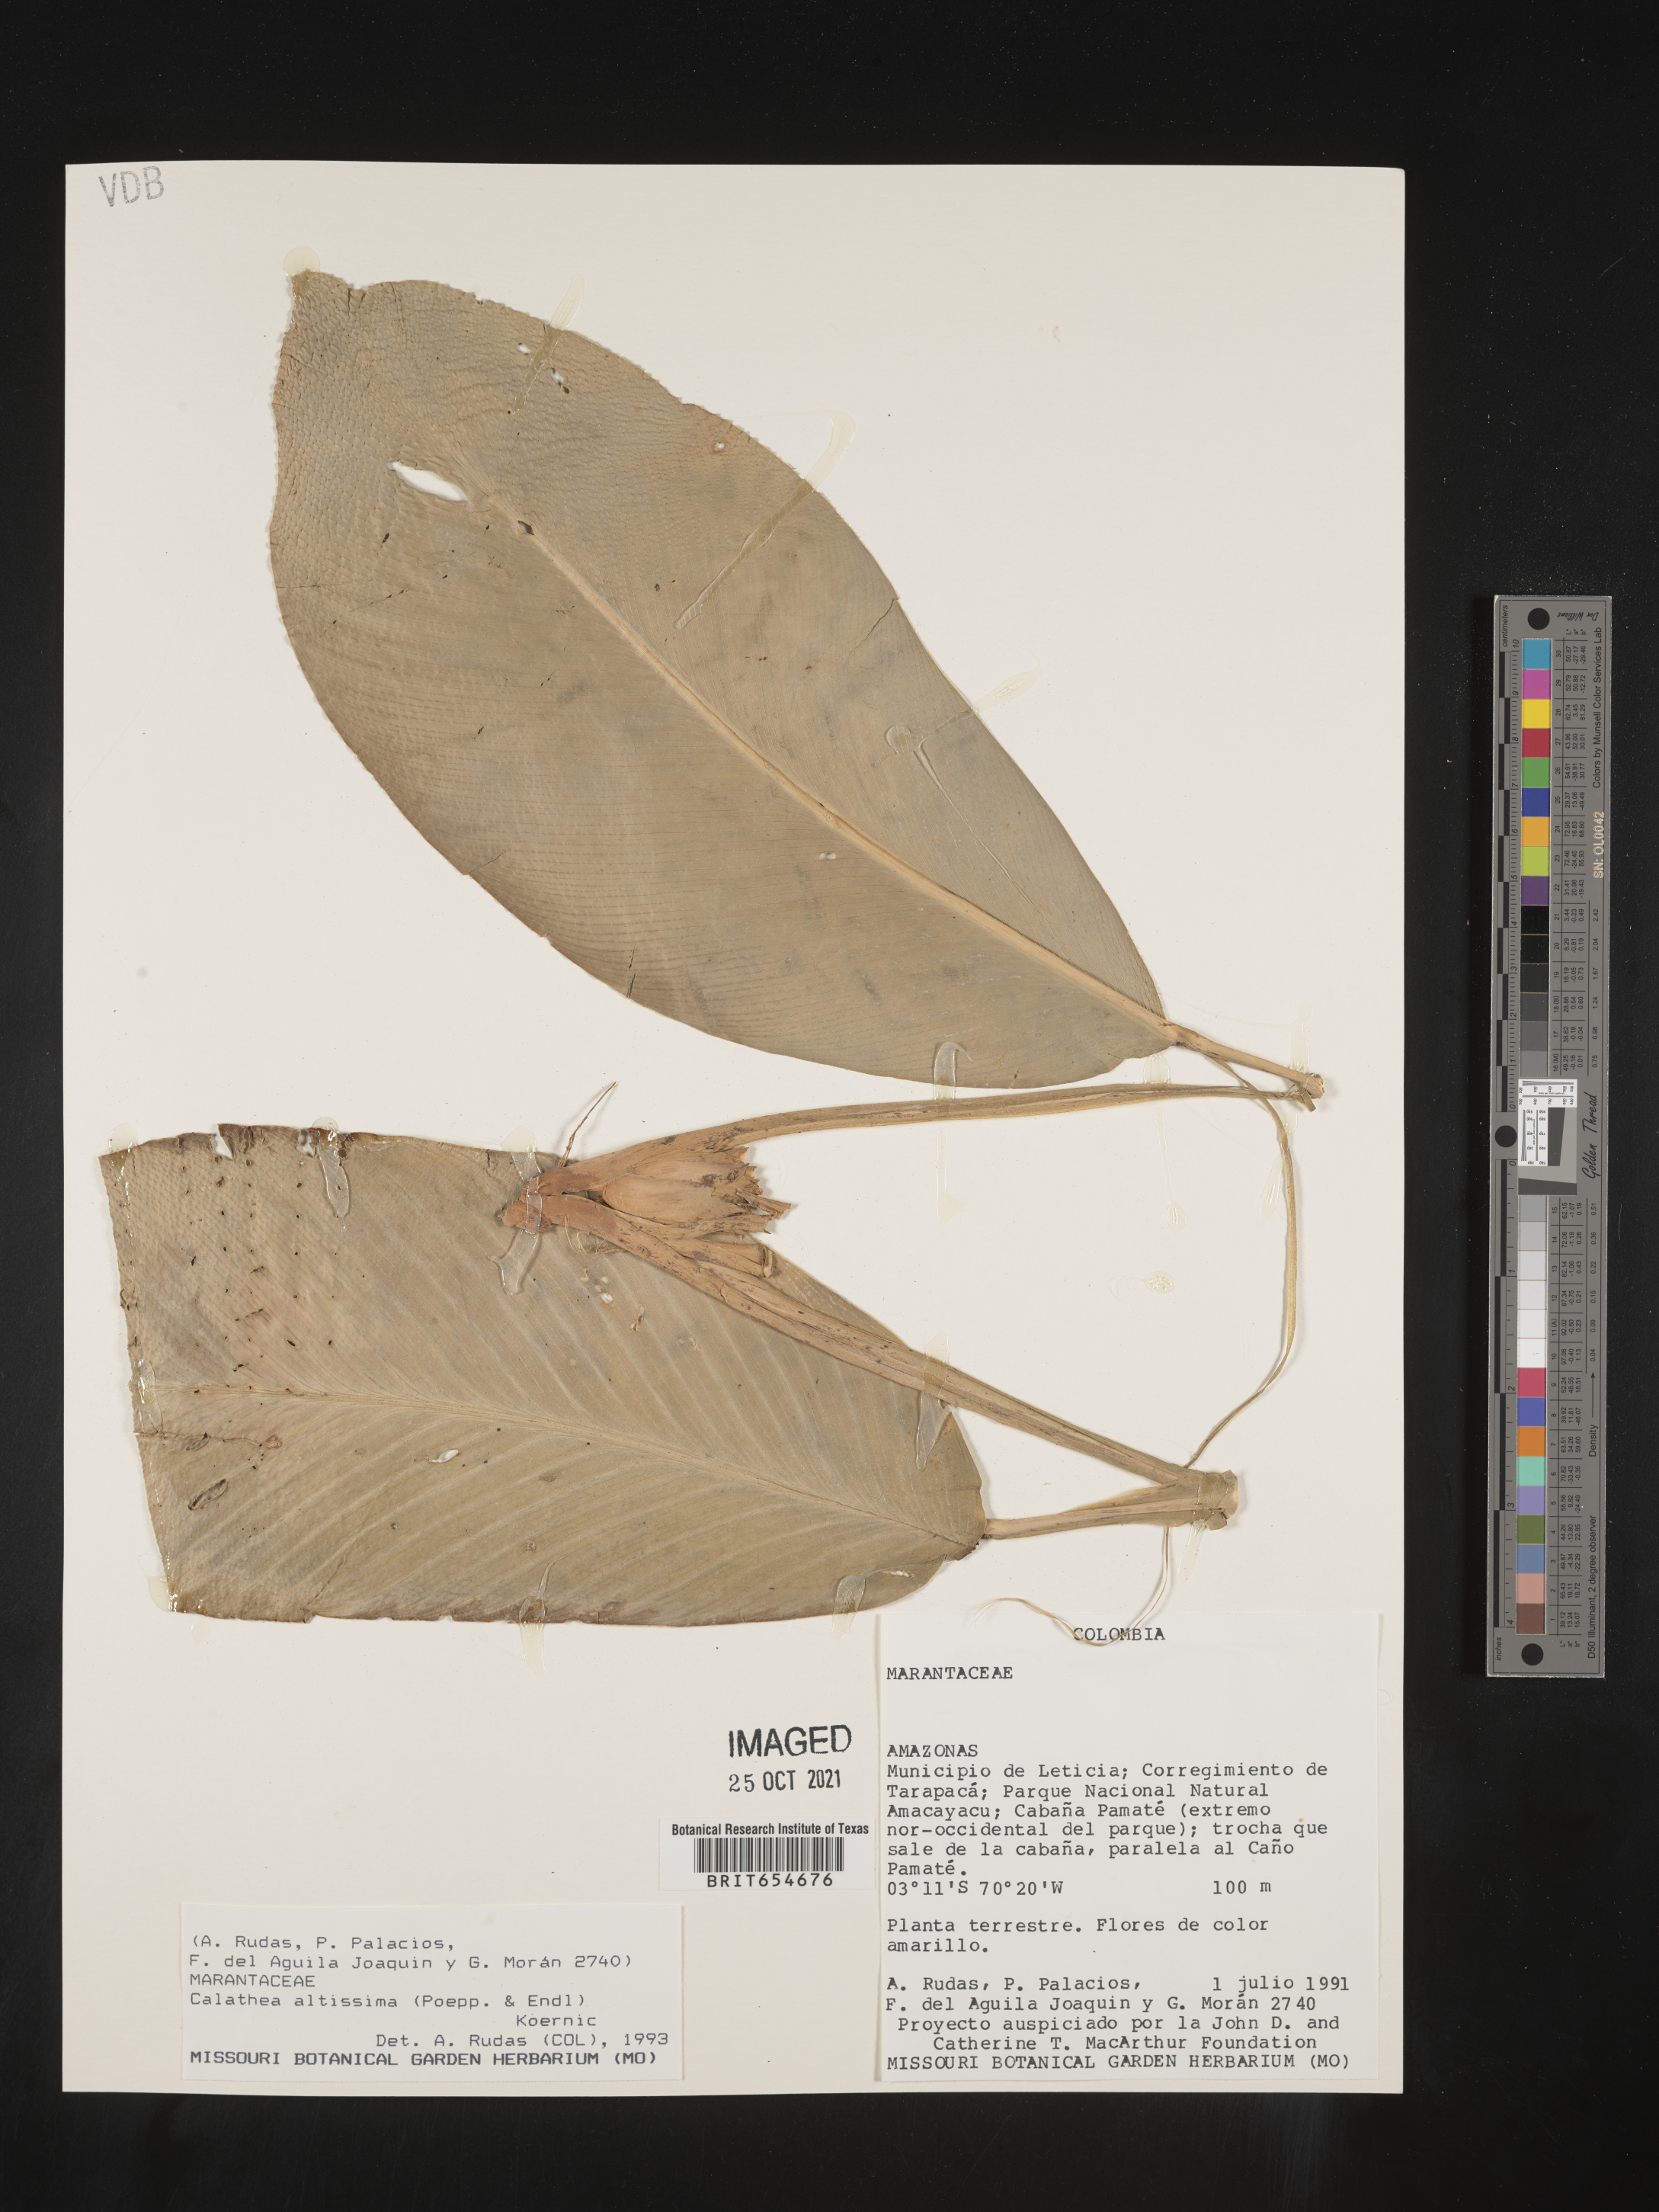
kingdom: Plantae
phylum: Tracheophyta
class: Liliopsida
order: Zingiberales
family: Marantaceae
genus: Calathea
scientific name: Calathea
